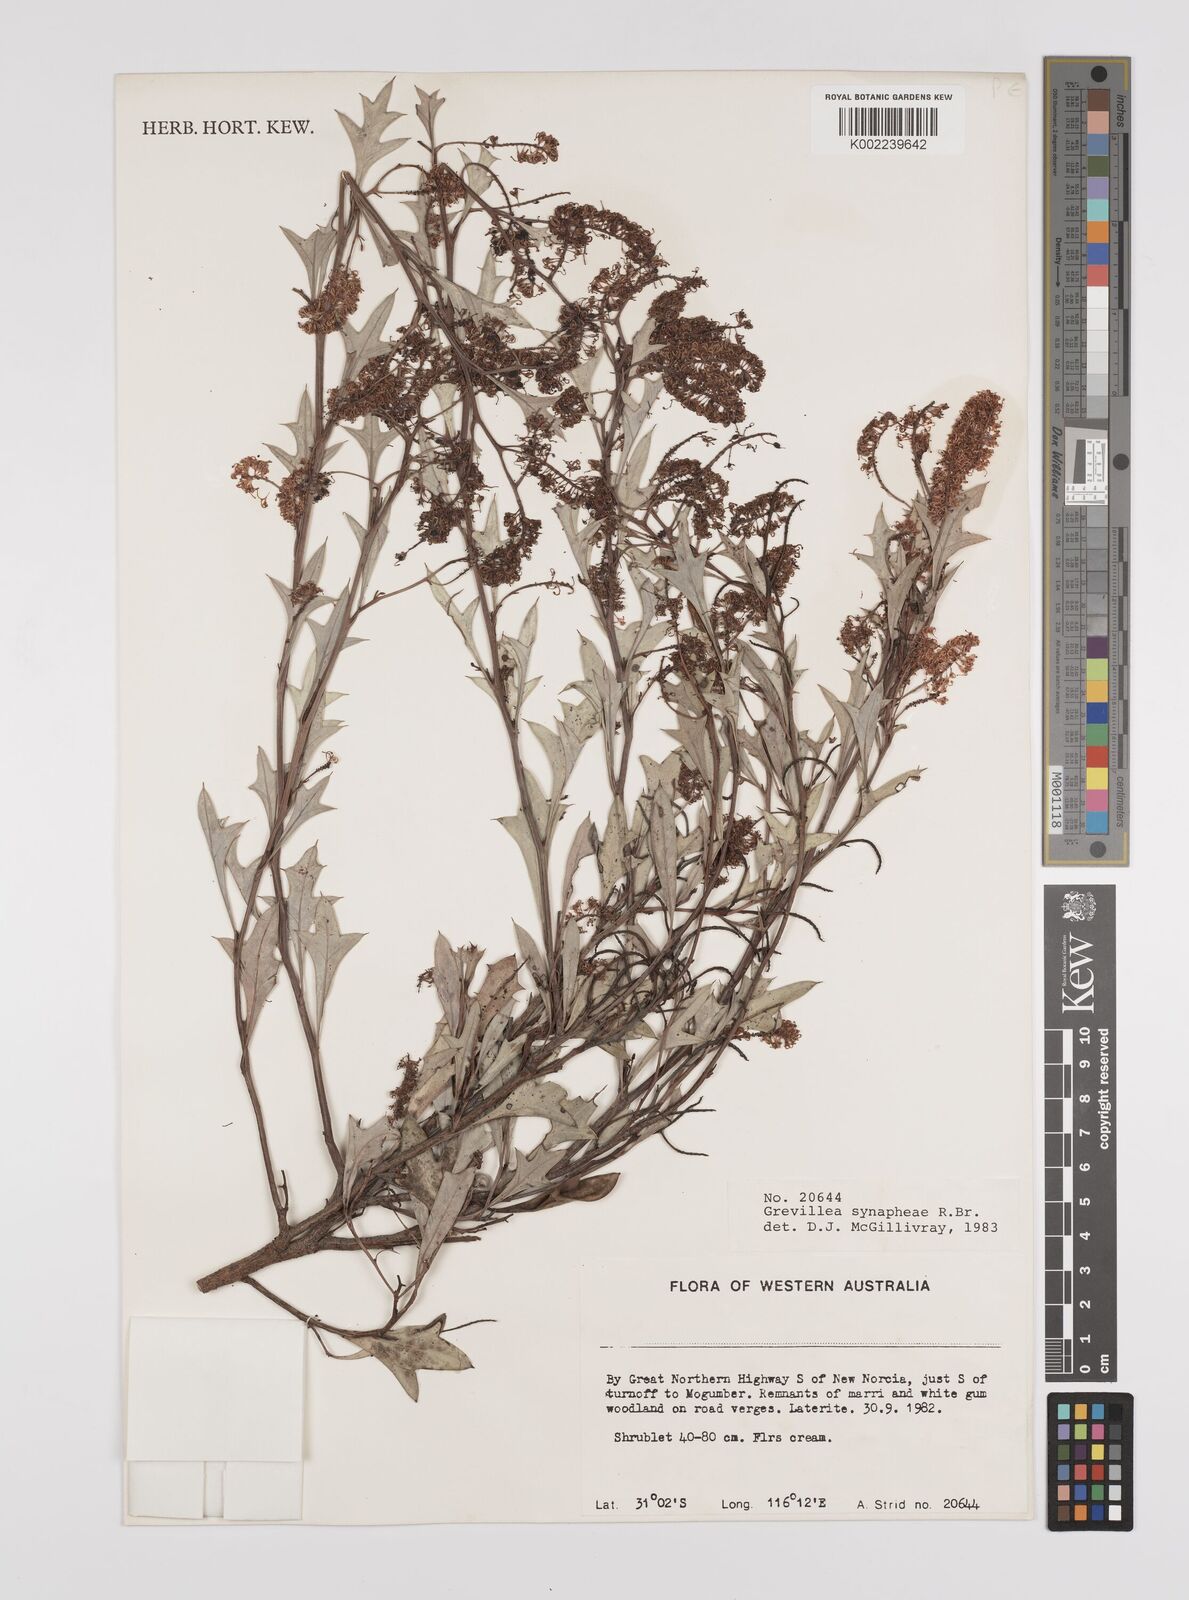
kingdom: Plantae
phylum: Tracheophyta
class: Magnoliopsida
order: Proteales
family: Proteaceae
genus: Grevillea
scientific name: Grevillea synaphea
